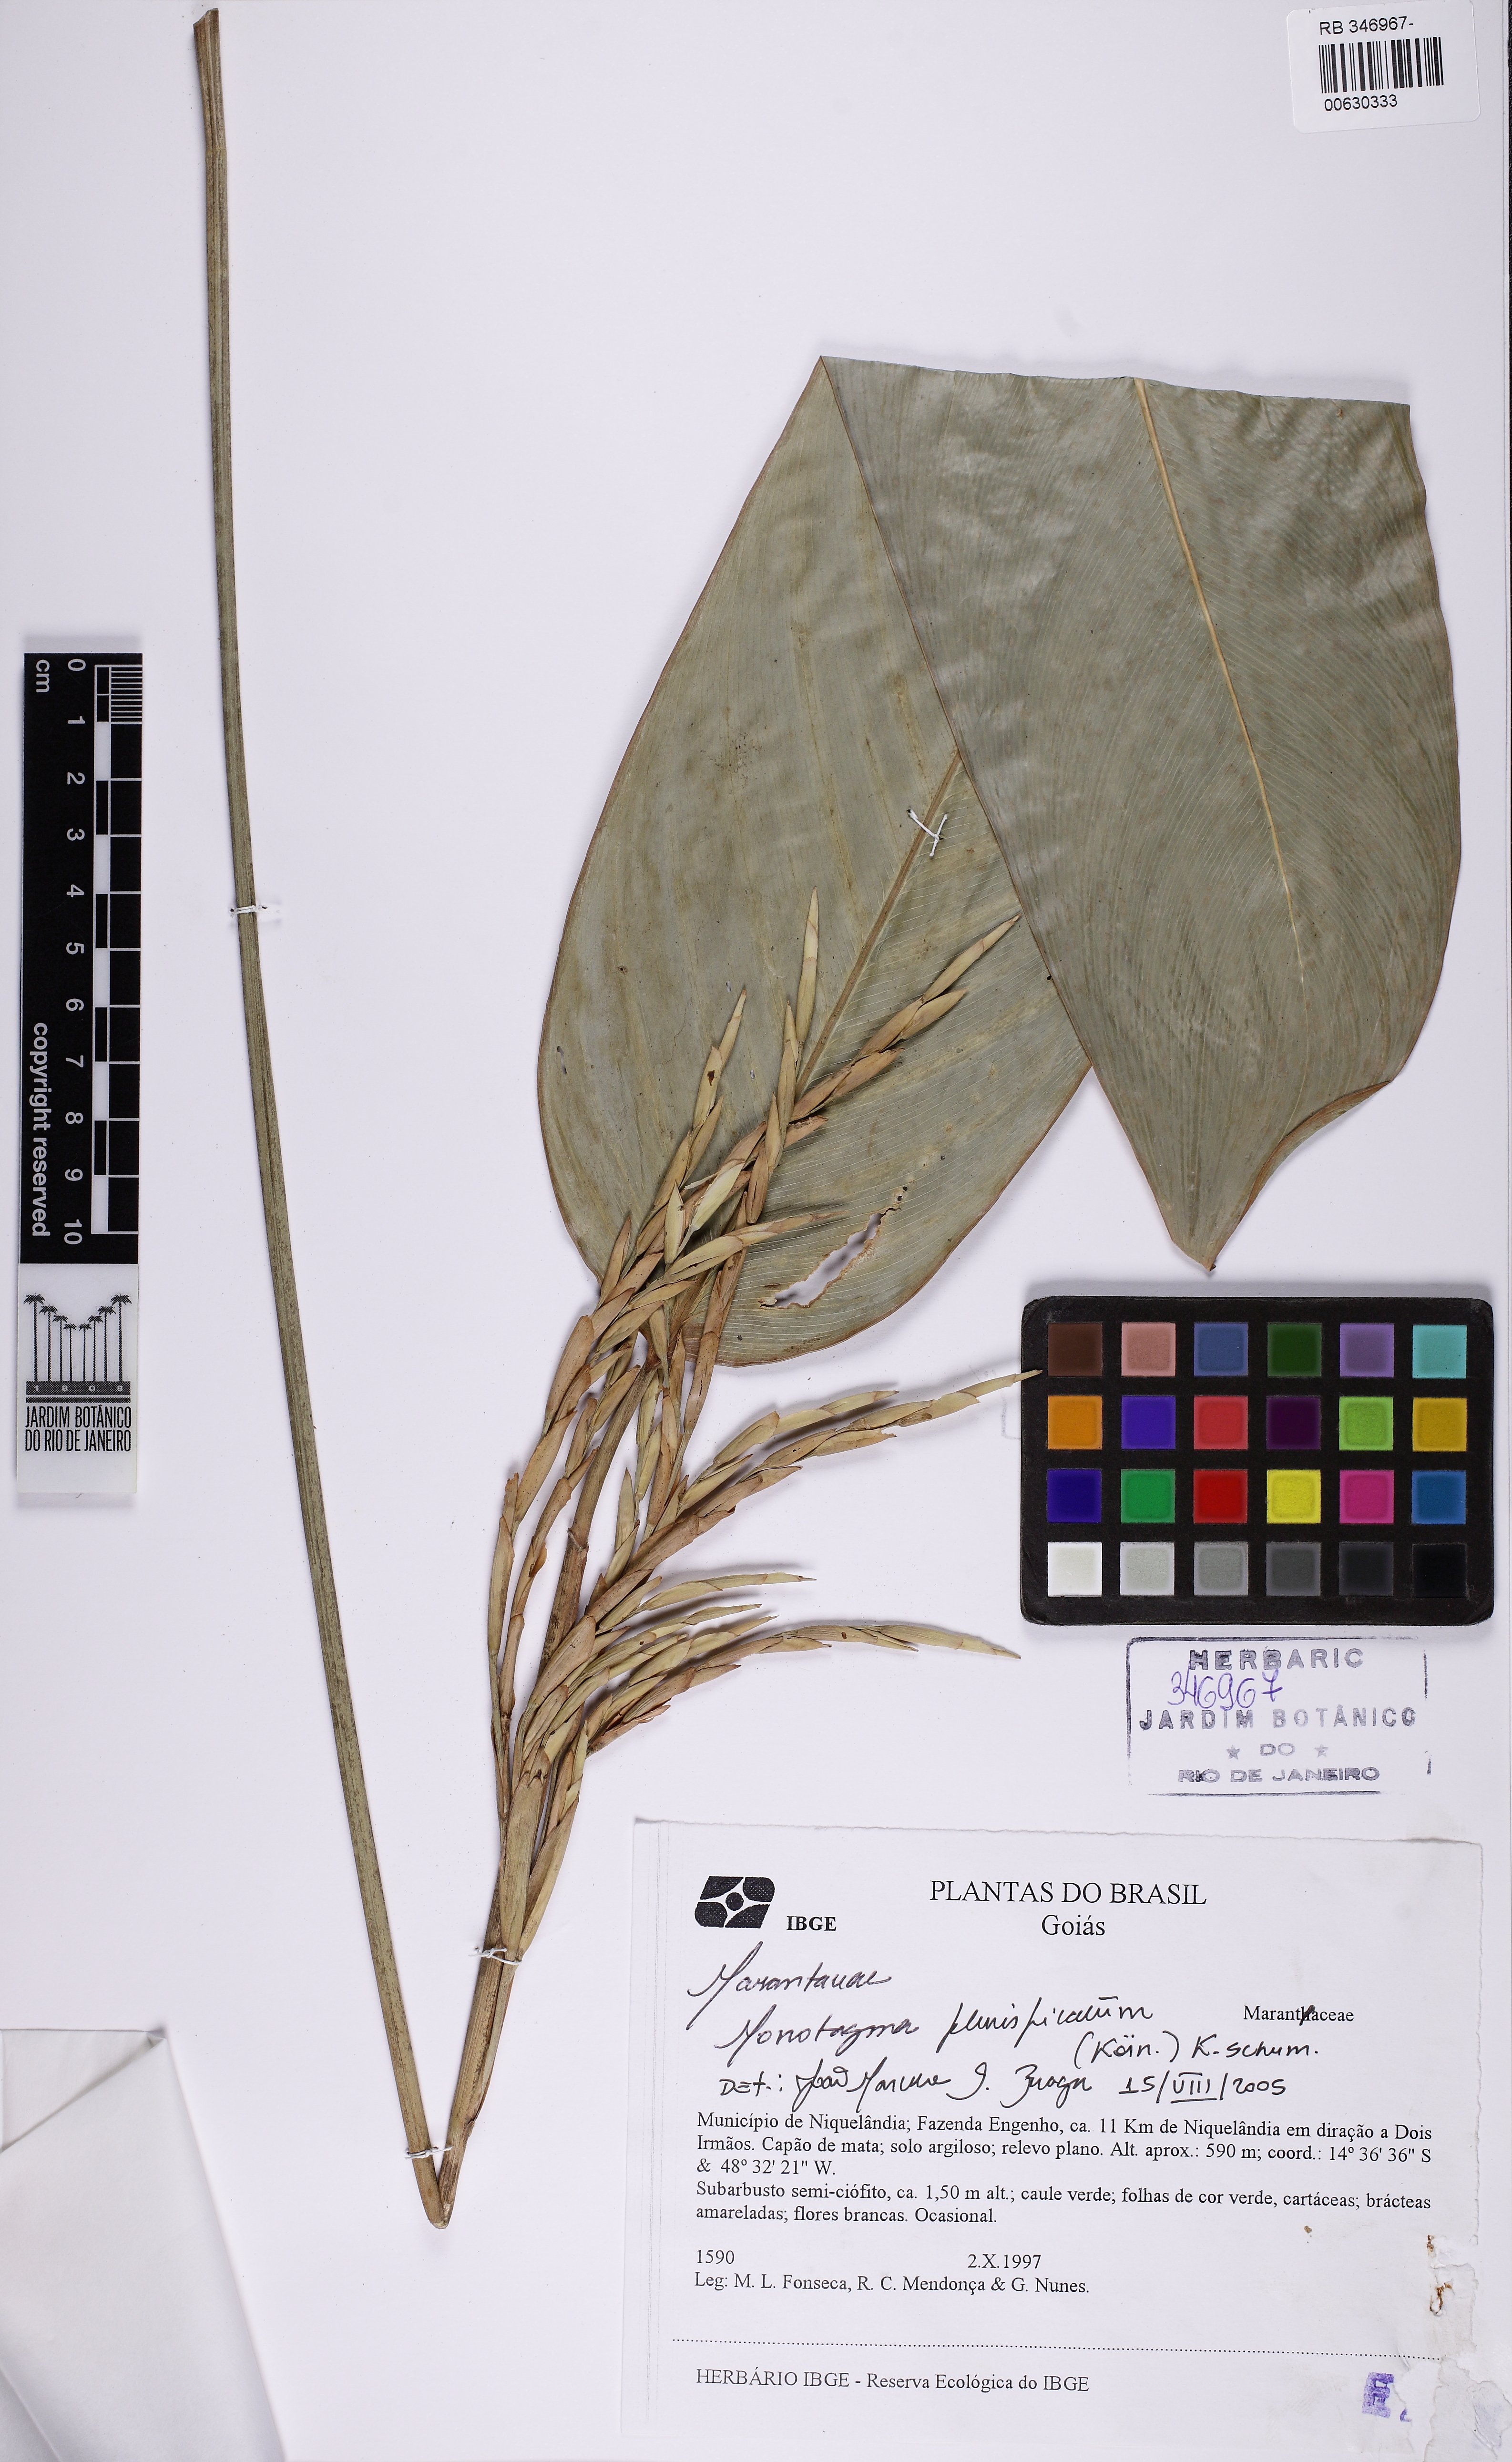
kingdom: Plantae
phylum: Tracheophyta
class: Liliopsida
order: Zingiberales
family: Marantaceae
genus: Monotagma
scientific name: Monotagma plurispicatum
